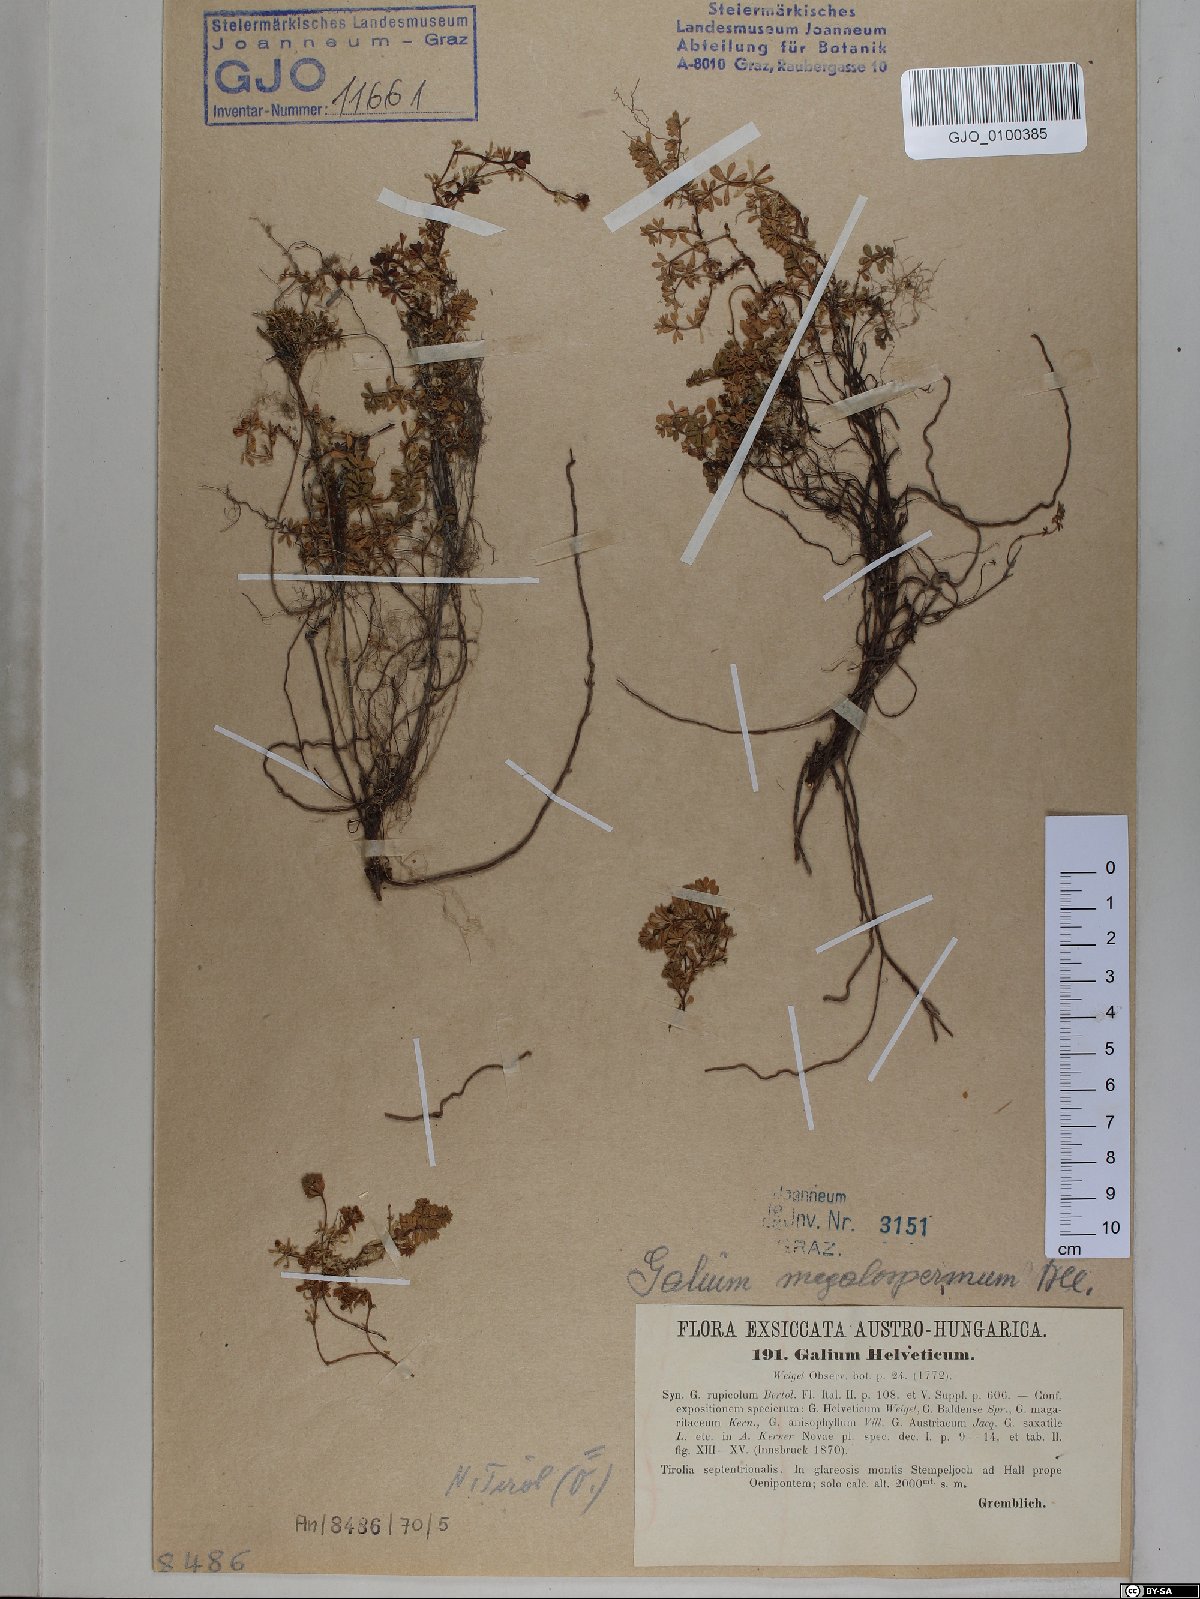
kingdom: Plantae
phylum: Tracheophyta
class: Magnoliopsida
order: Gentianales
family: Rubiaceae
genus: Galium
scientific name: Galium saxatile
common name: Heath bedstraw
